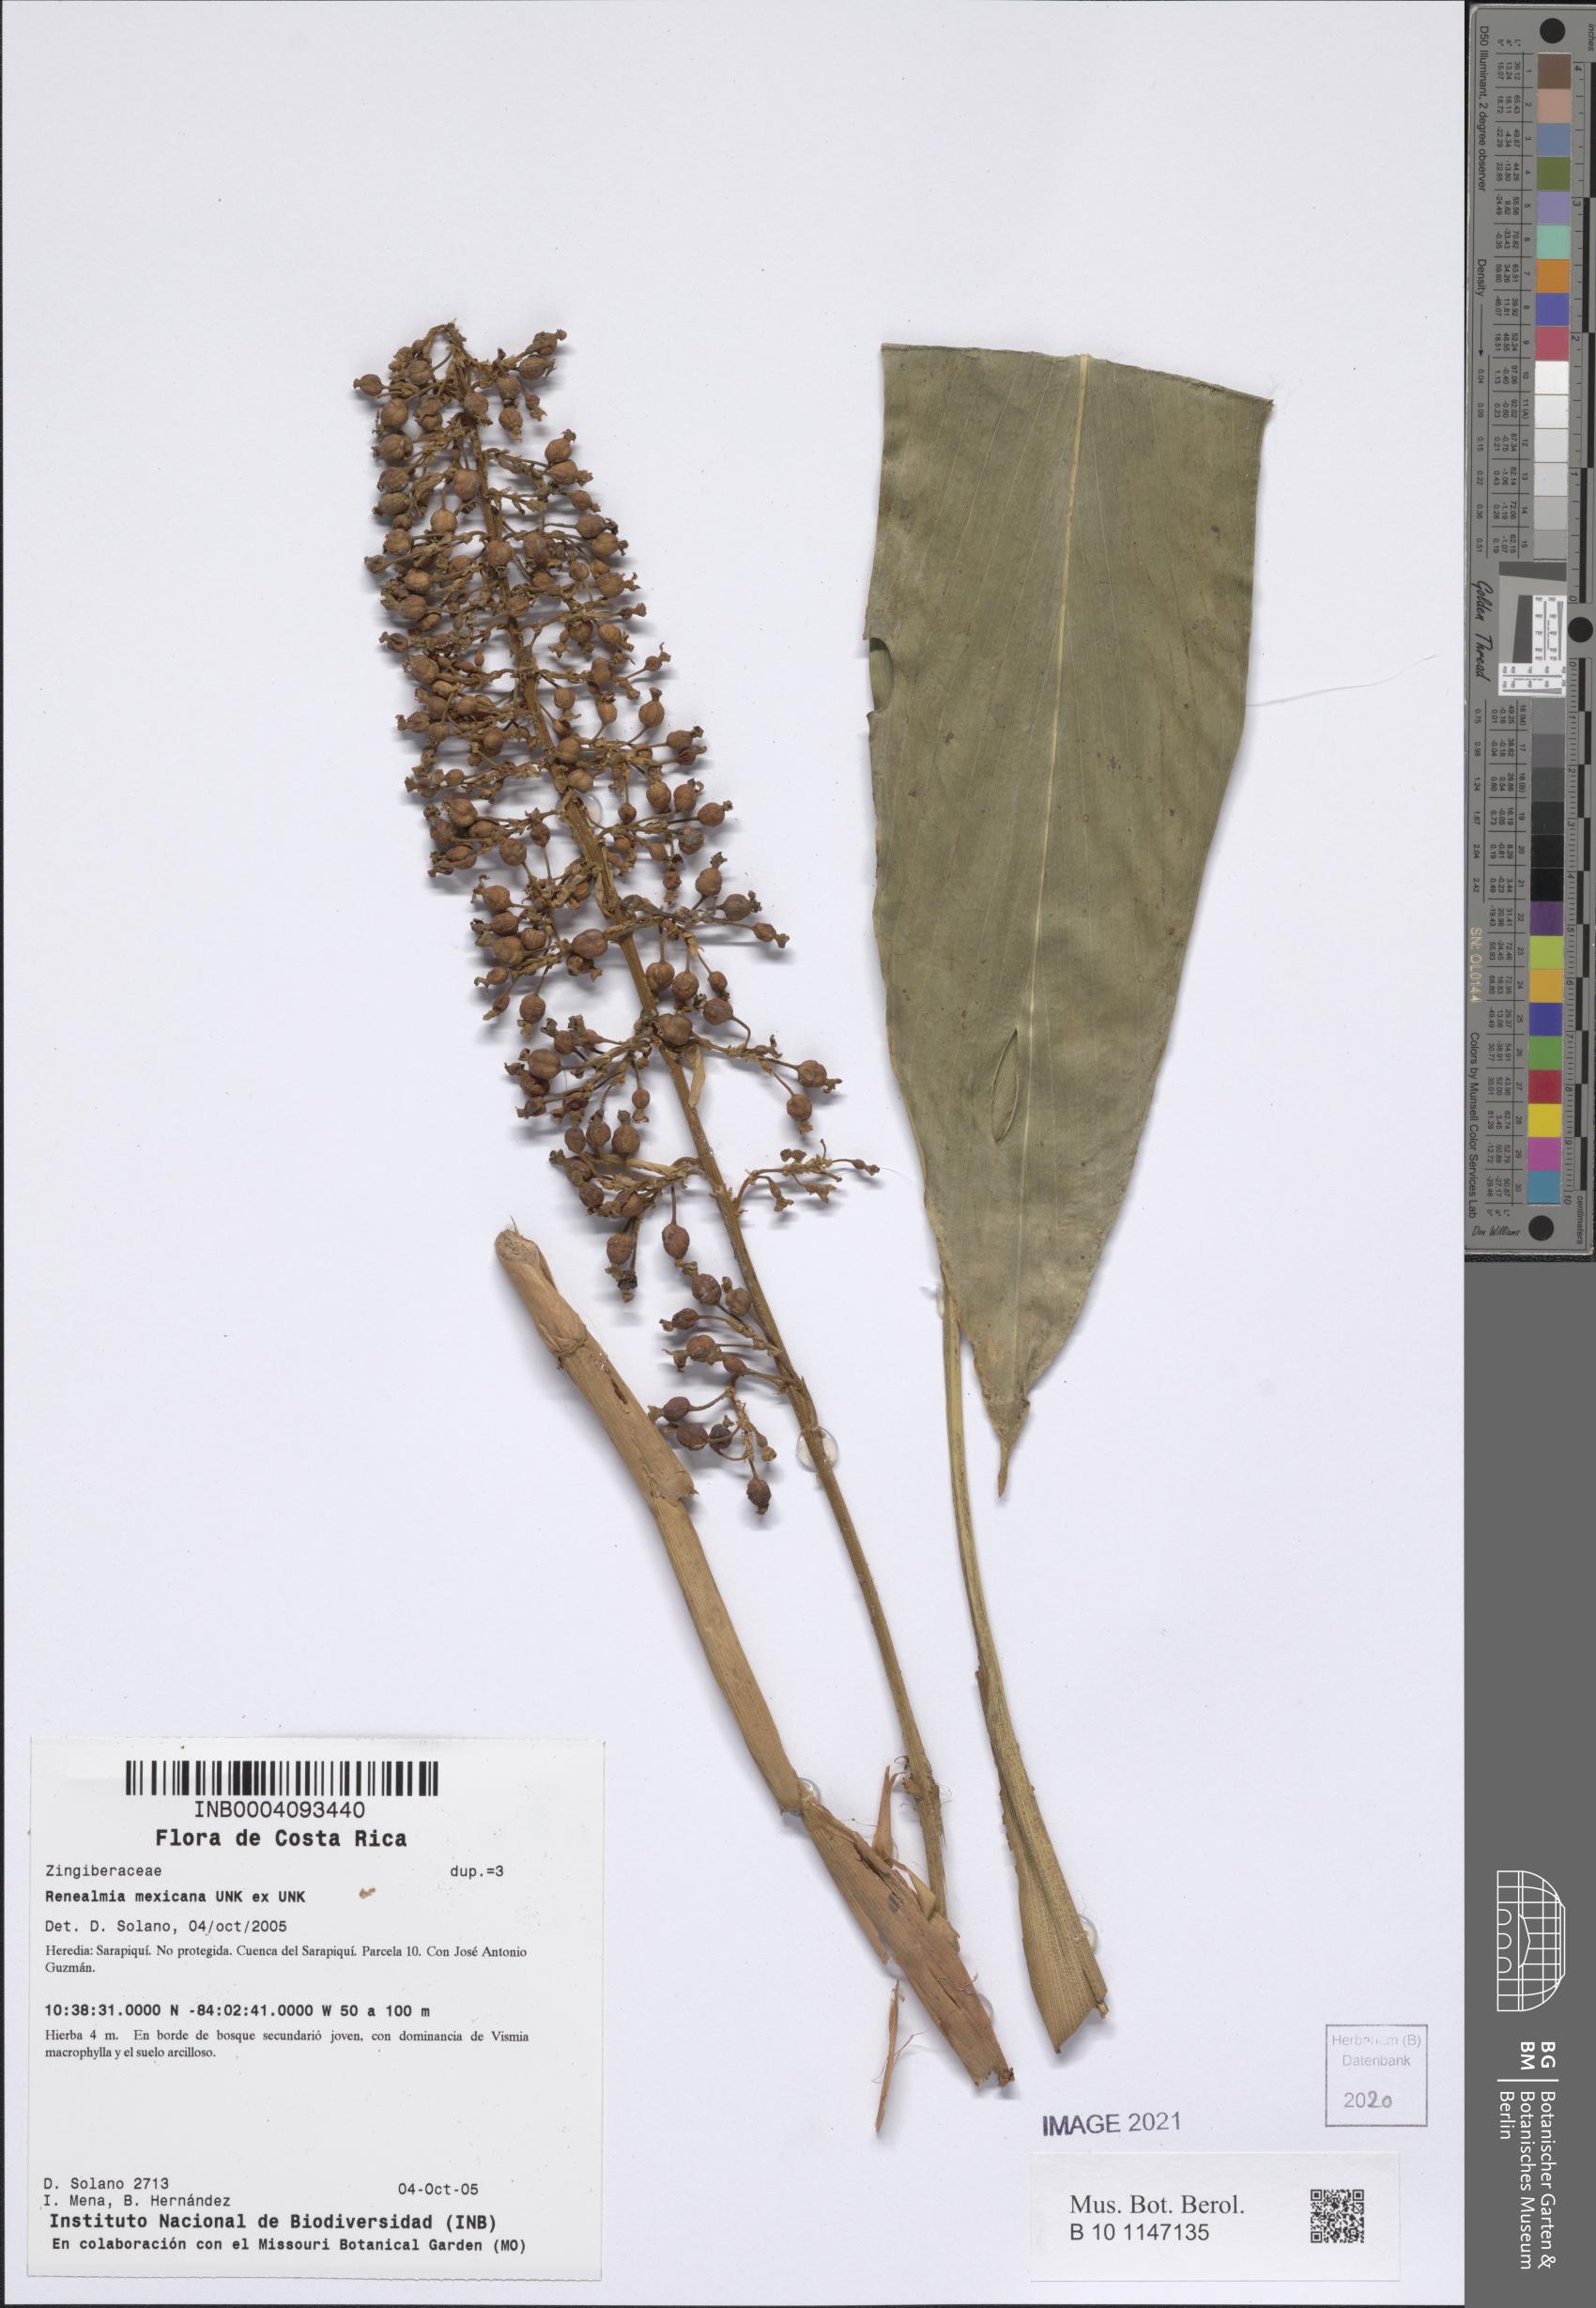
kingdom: Plantae
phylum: Tracheophyta
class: Liliopsida
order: Zingiberales
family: Zingiberaceae
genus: Renealmia
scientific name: Renealmia mexicana
